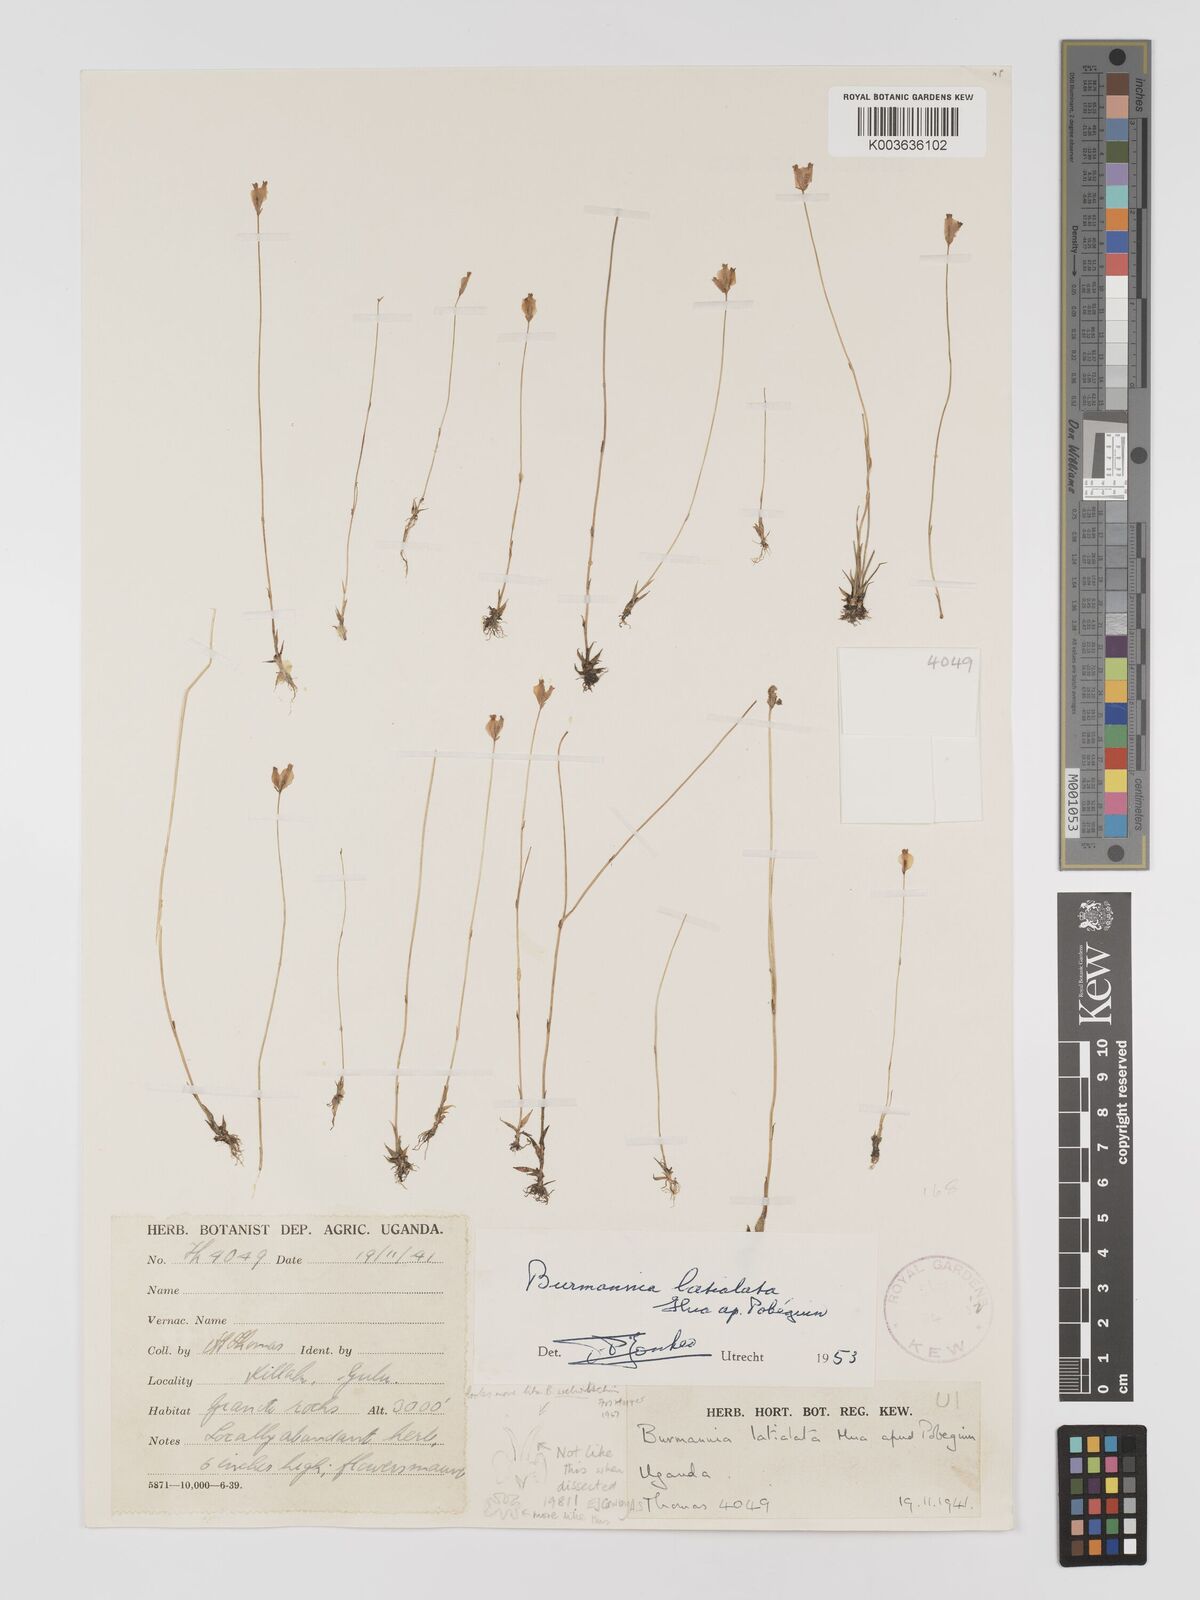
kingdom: Plantae
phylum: Tracheophyta
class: Liliopsida
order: Dioscoreales
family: Burmanniaceae
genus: Burmannia
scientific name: Burmannia madagascariensis
